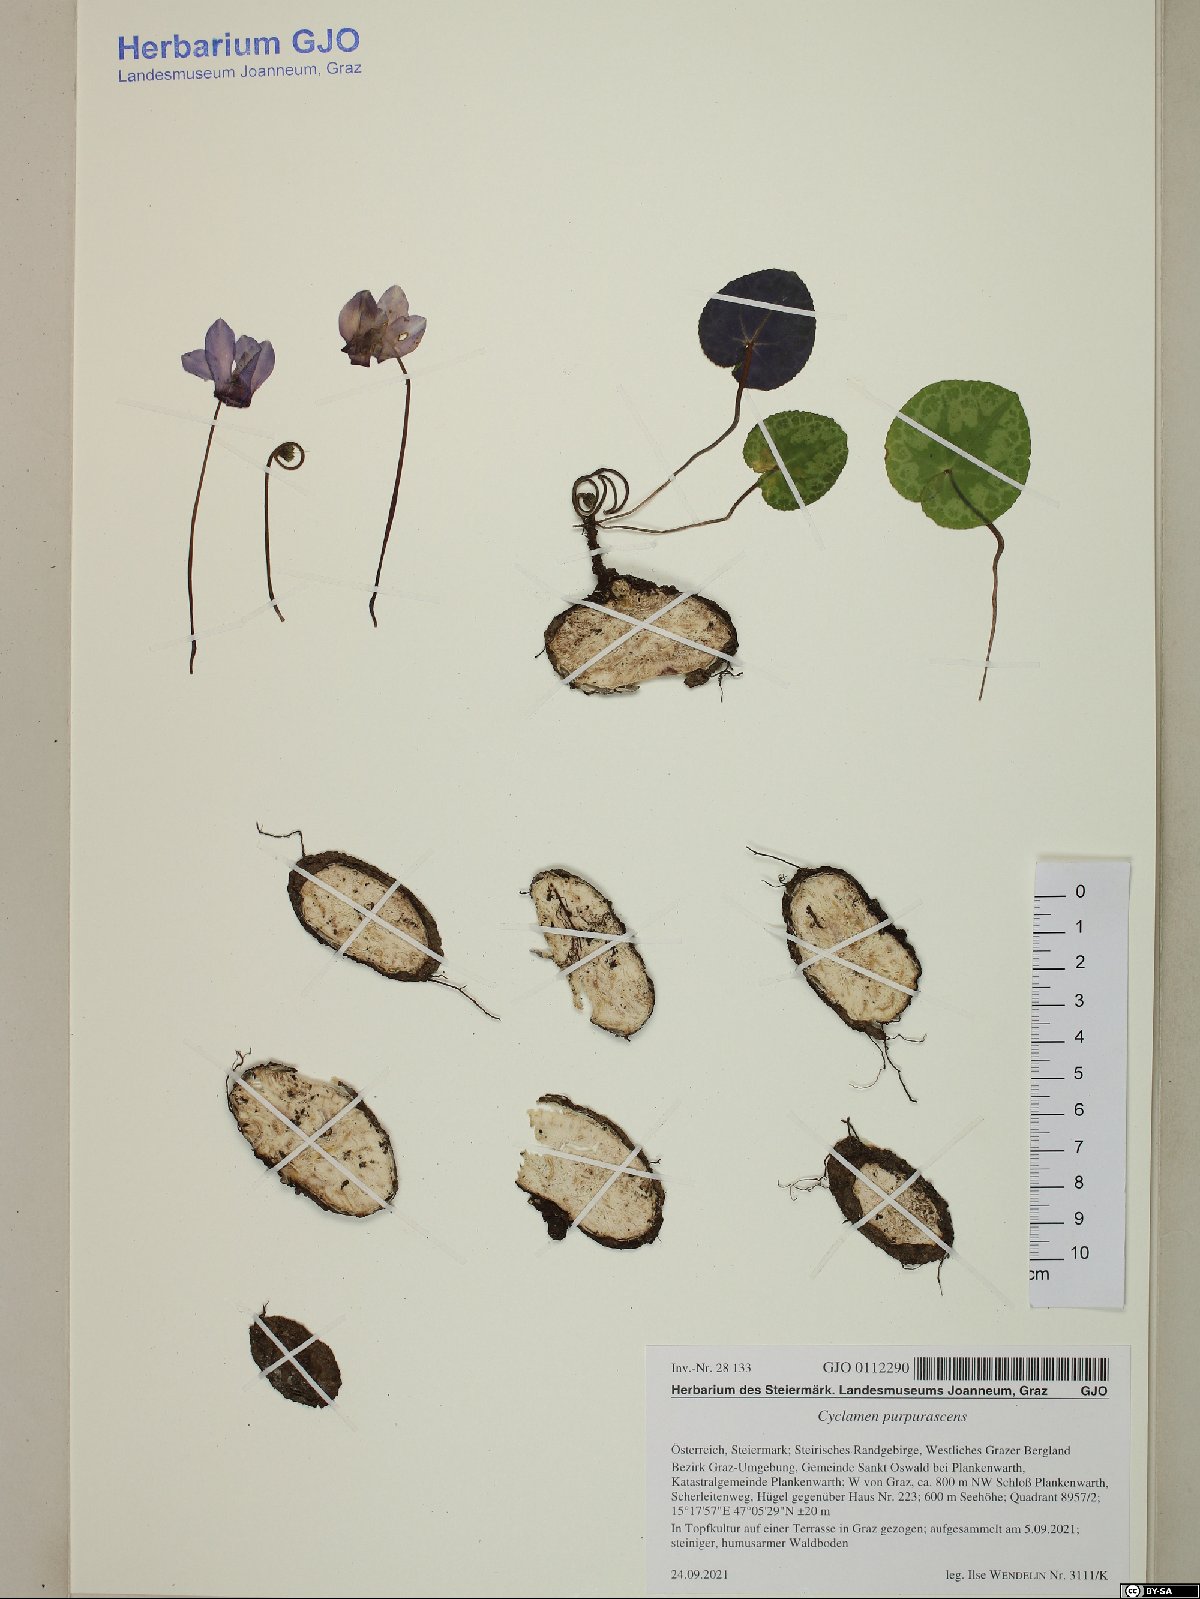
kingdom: Plantae
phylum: Tracheophyta
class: Magnoliopsida
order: Ericales
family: Primulaceae
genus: Cyclamen
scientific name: Cyclamen purpurascens
